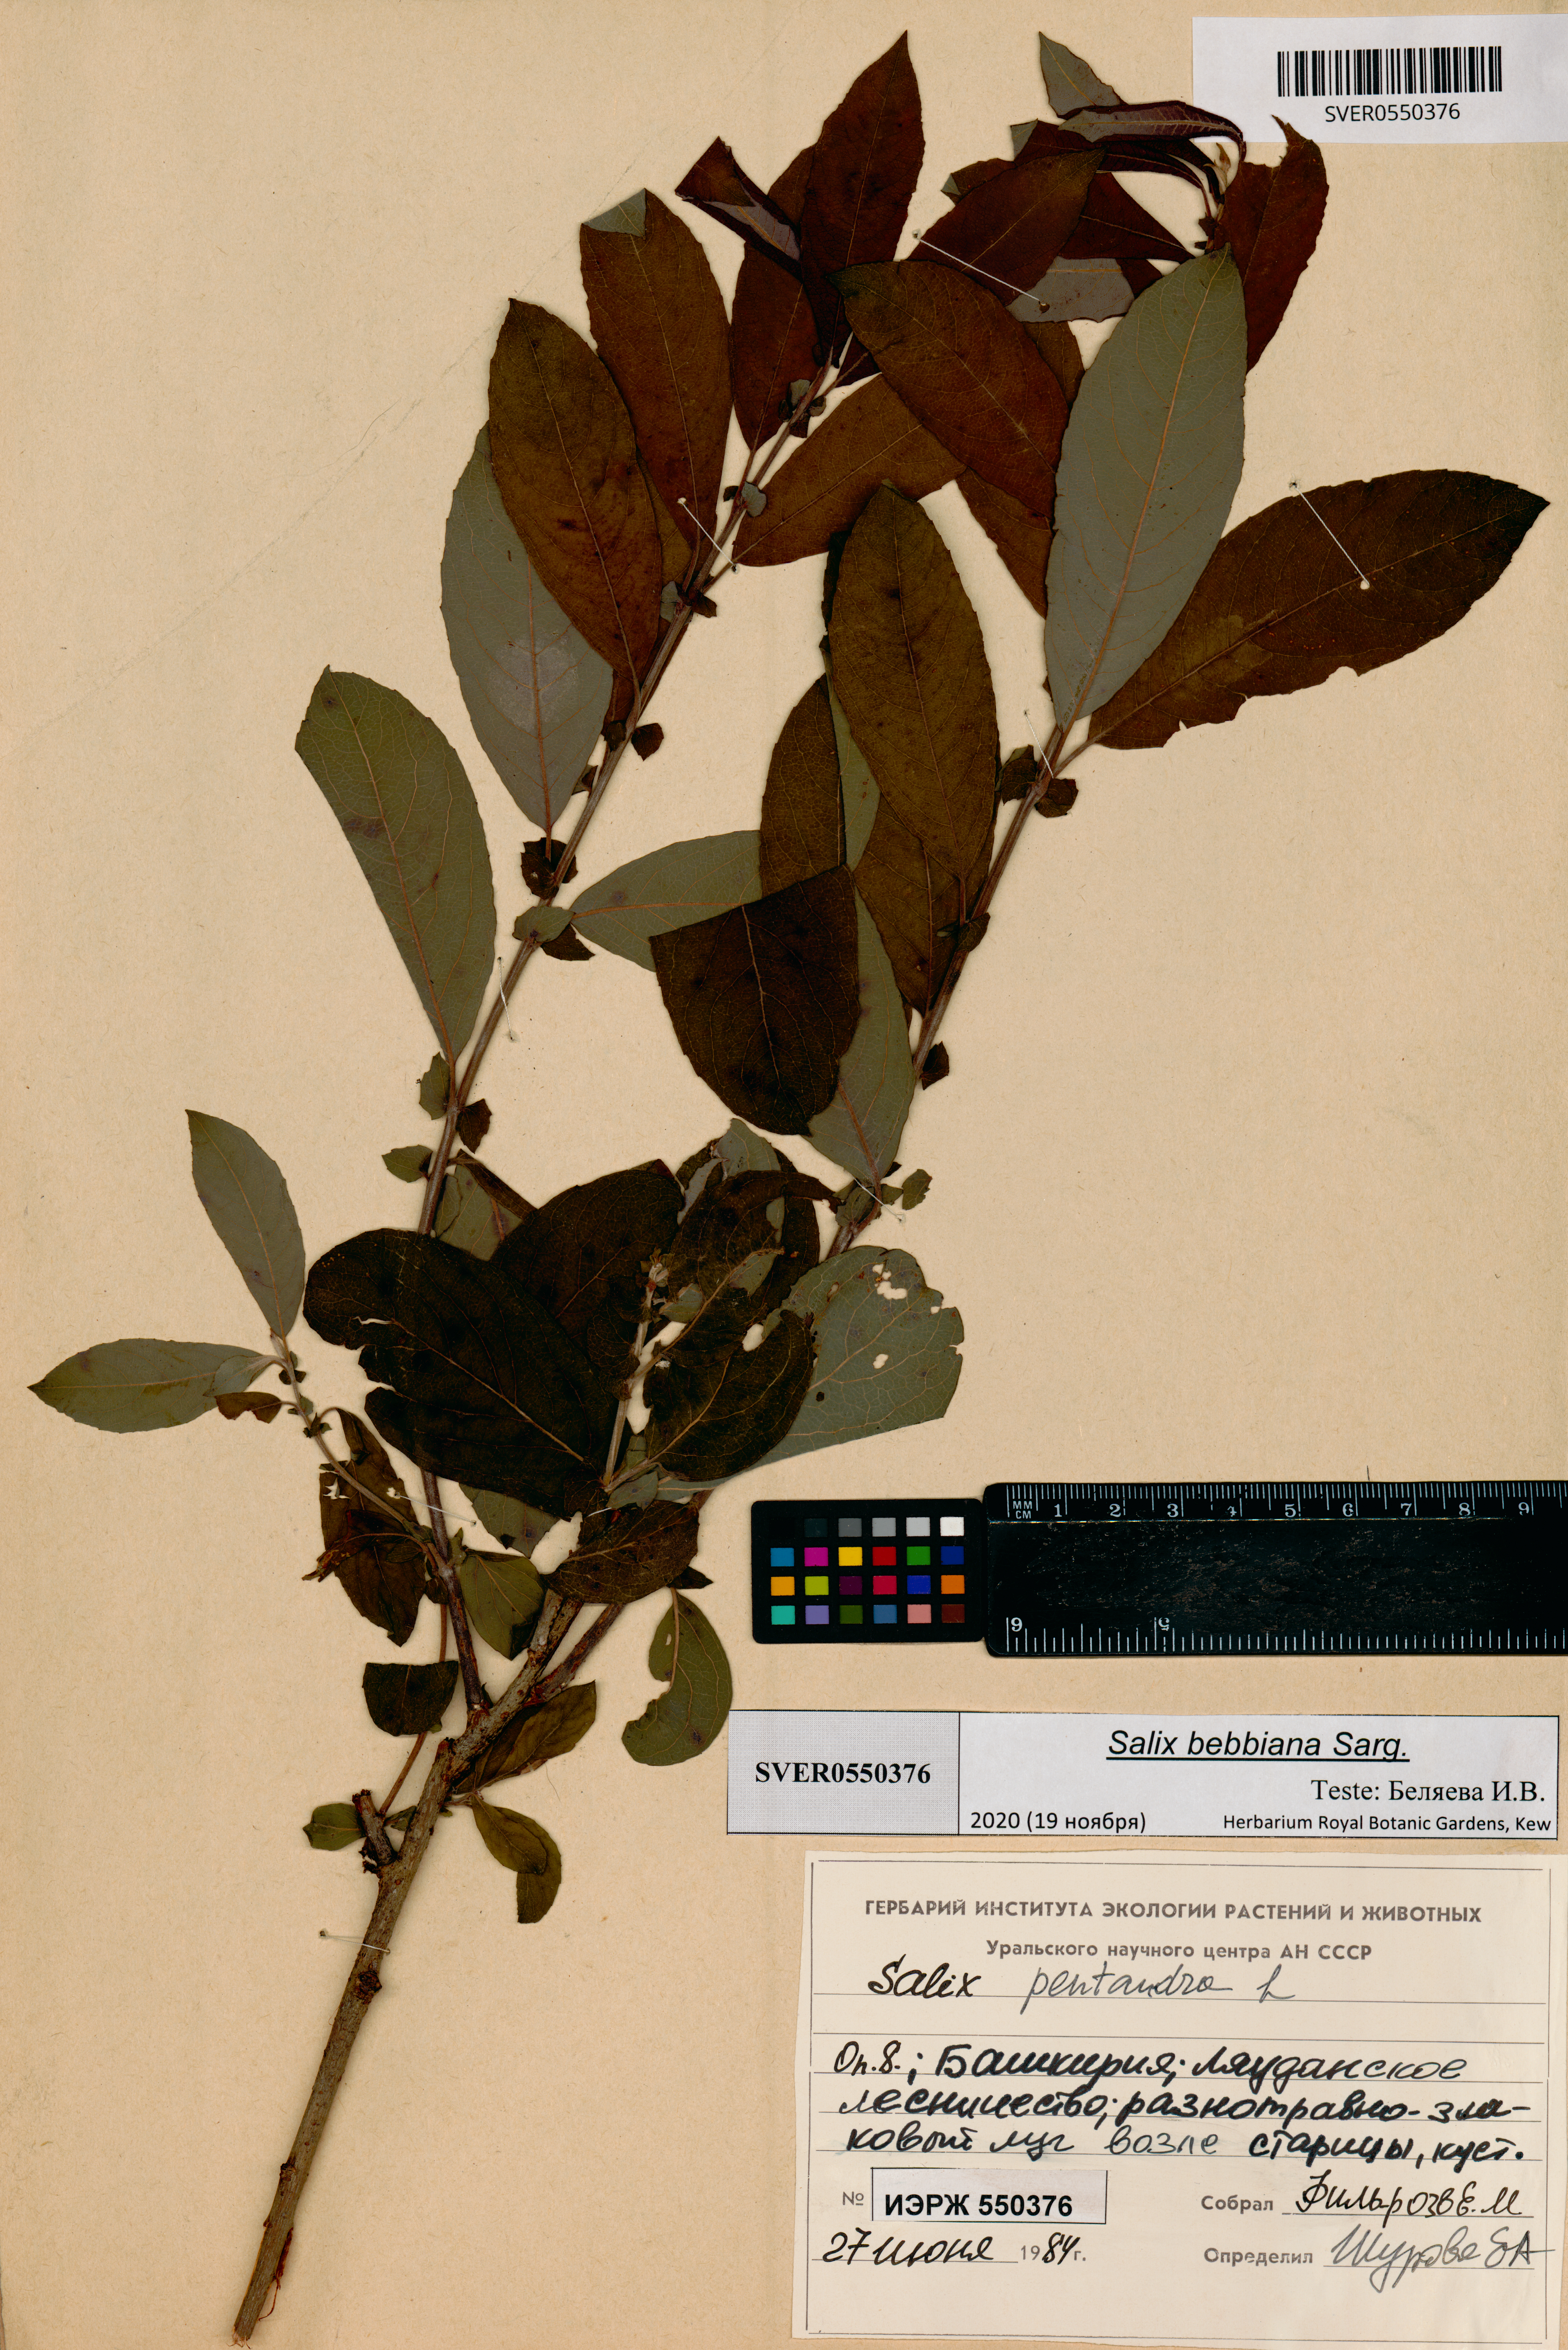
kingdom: Plantae
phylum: Tracheophyta
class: Magnoliopsida
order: Malpighiales
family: Salicaceae
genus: Salix
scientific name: Salix bebbiana
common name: Bebb's willow
